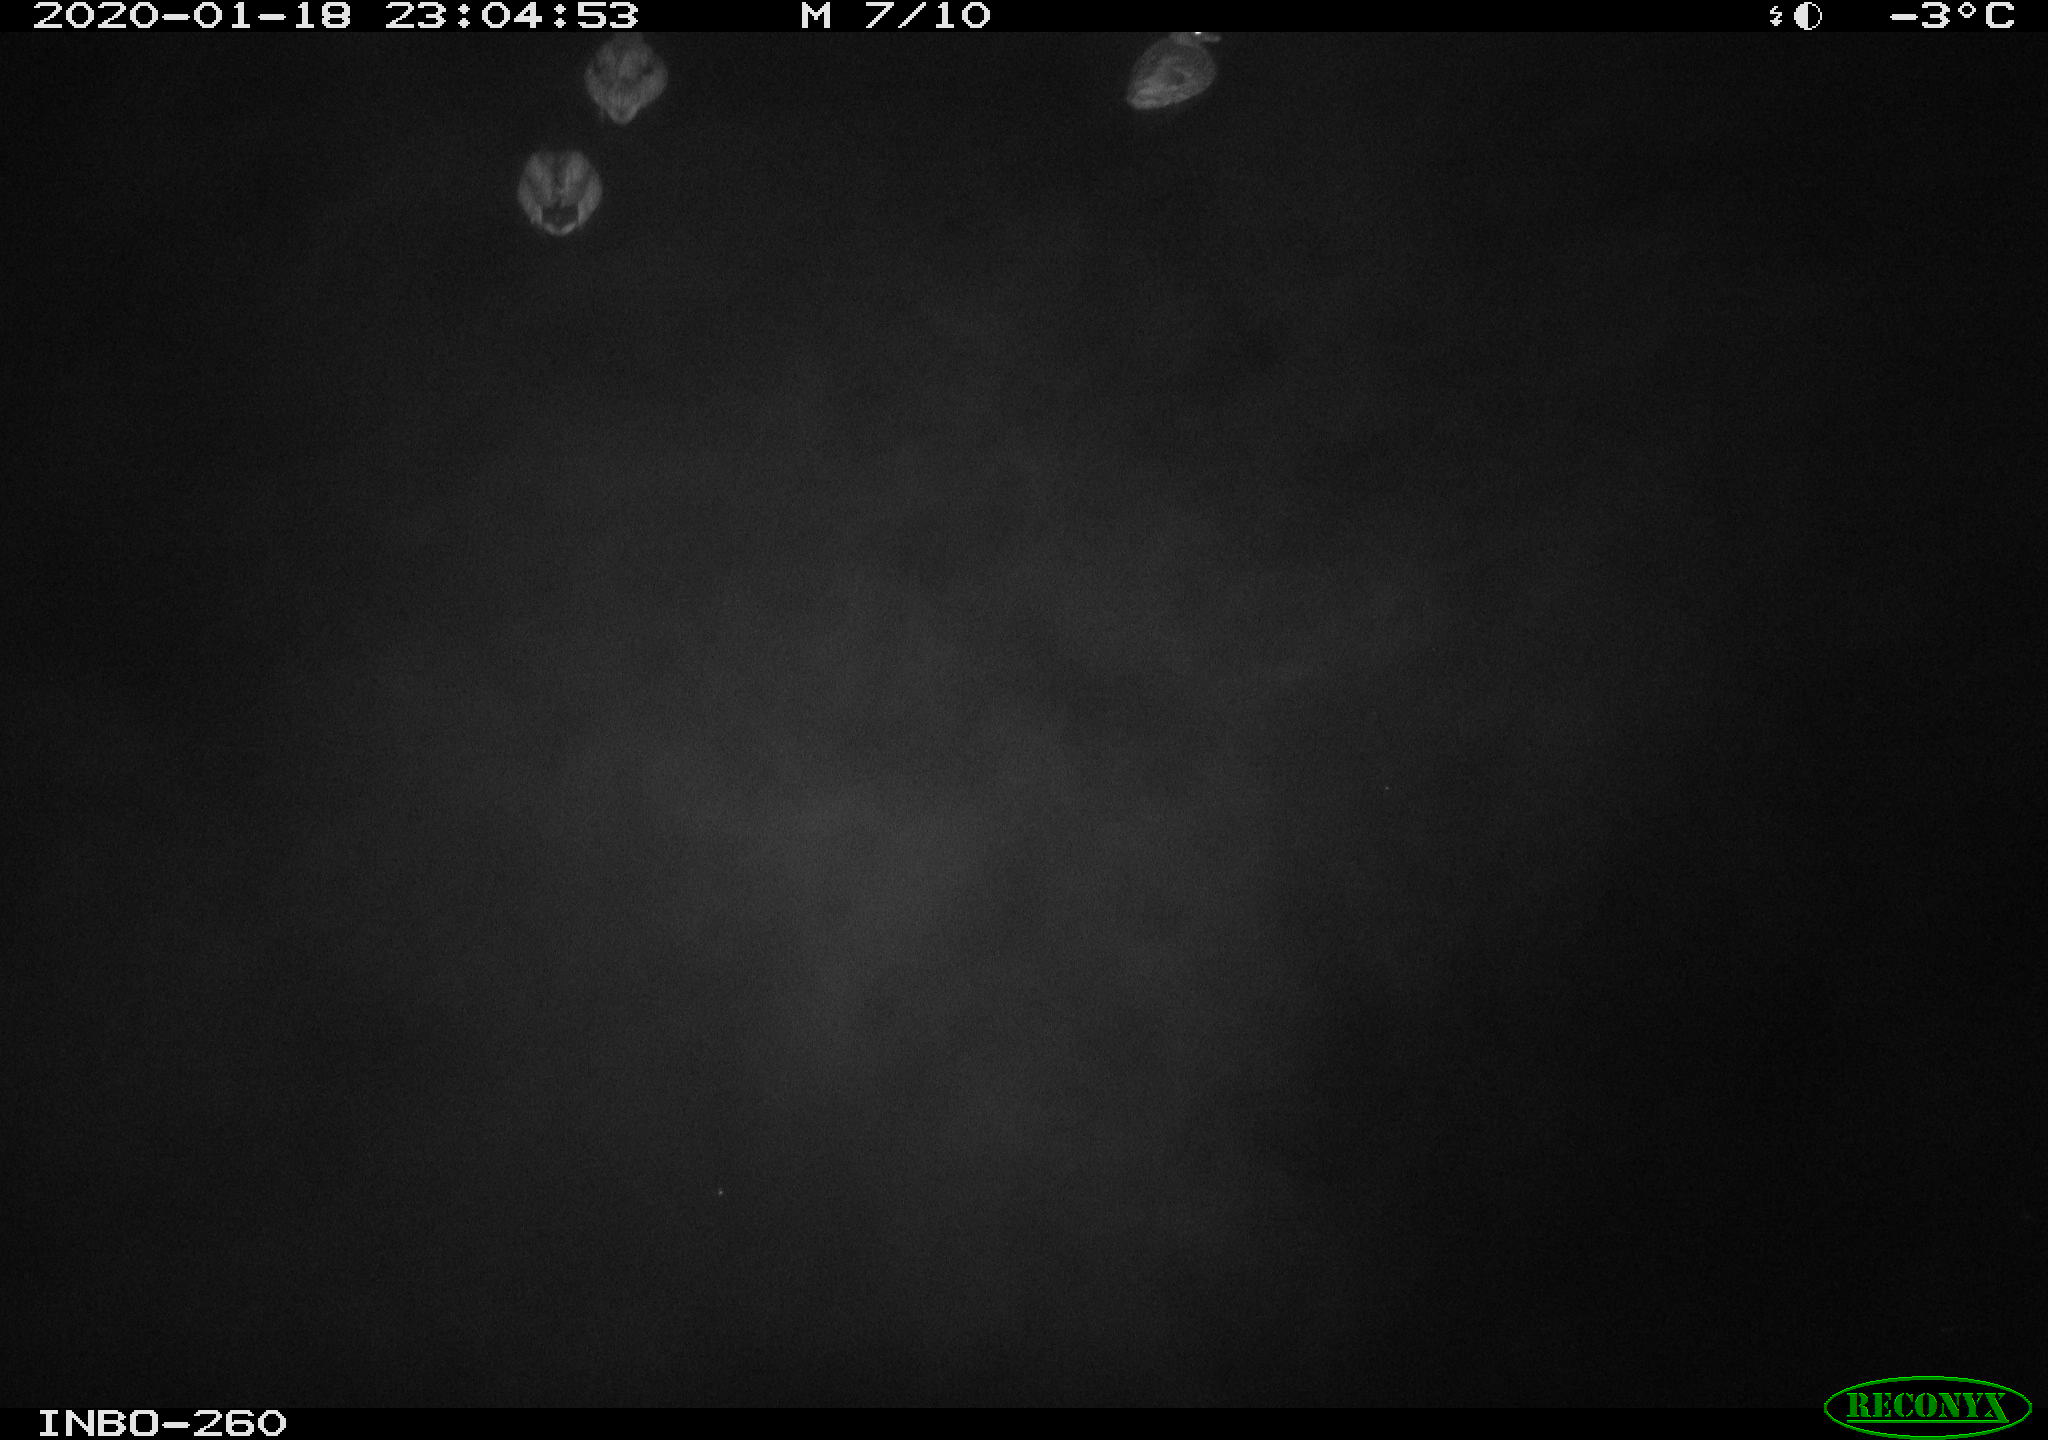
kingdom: Animalia
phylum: Chordata
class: Aves
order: Anseriformes
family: Anatidae
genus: Anas
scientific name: Anas platyrhynchos
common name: Mallard
